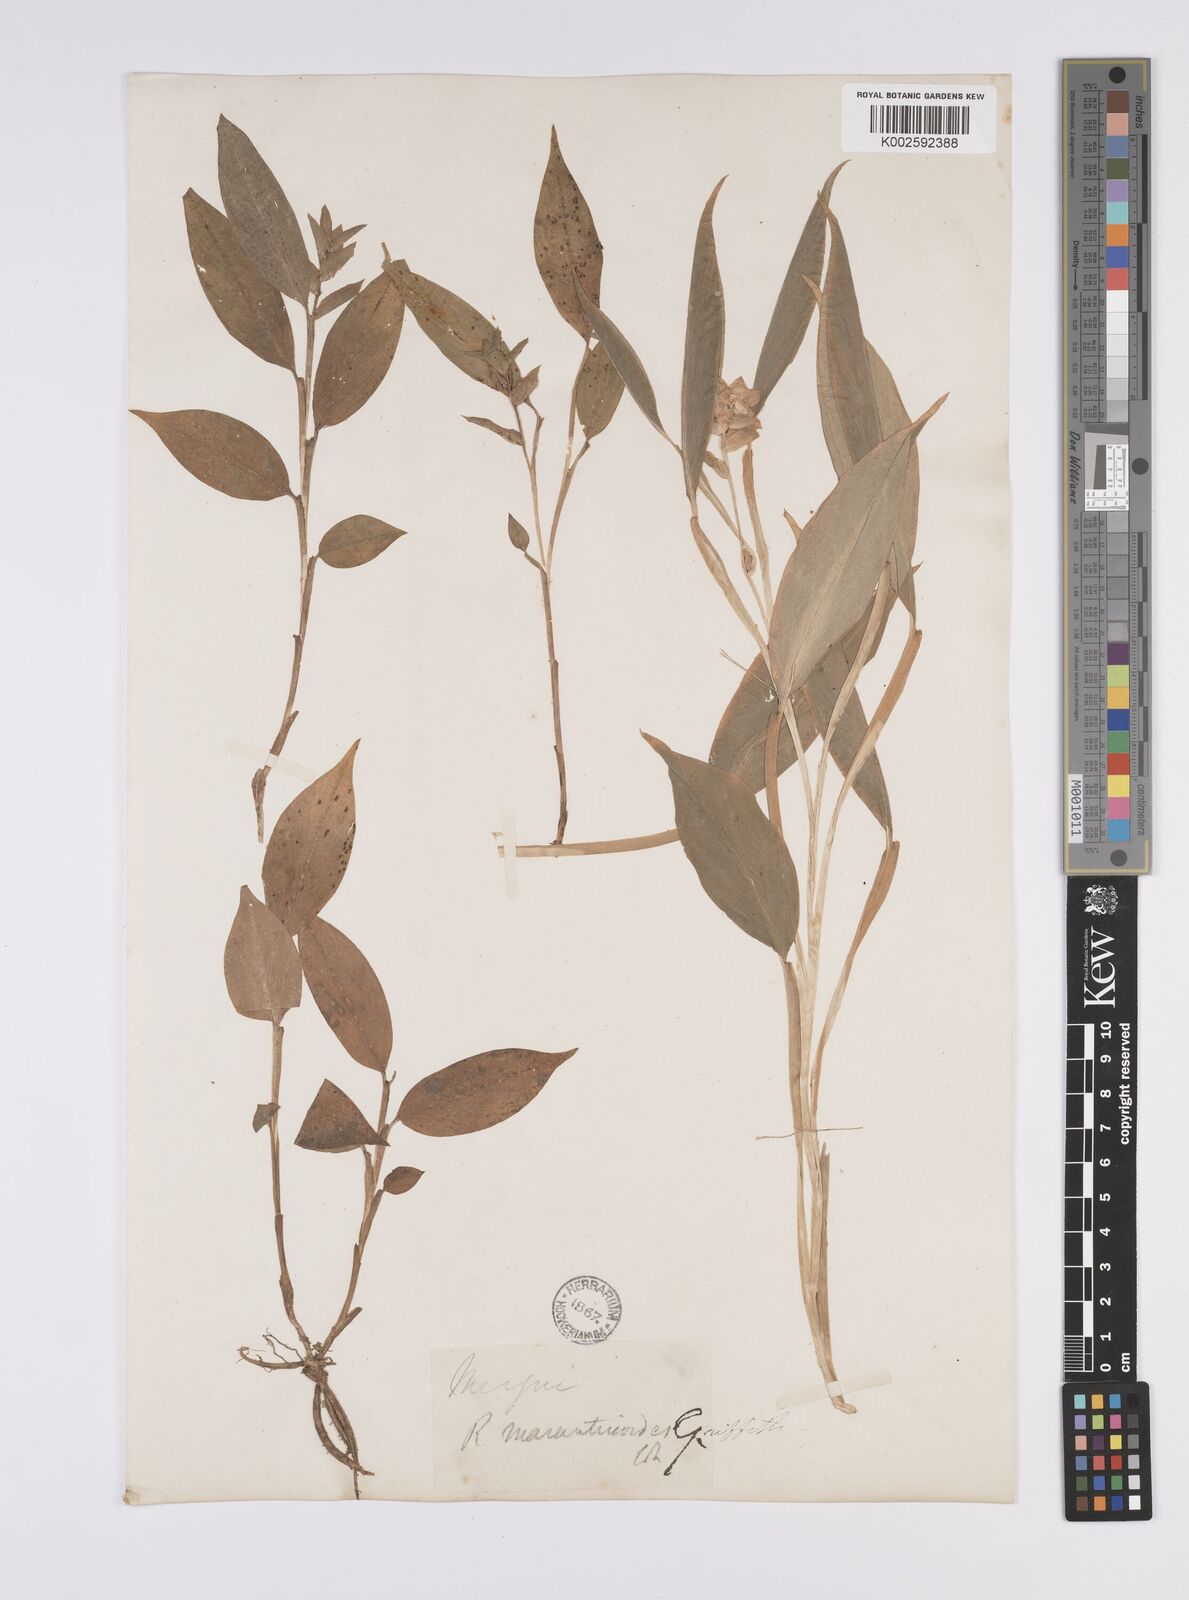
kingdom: Plantae
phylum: Tracheophyta
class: Liliopsida
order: Zingiberales
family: Zingiberaceae
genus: Globba
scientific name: Globba marantina
